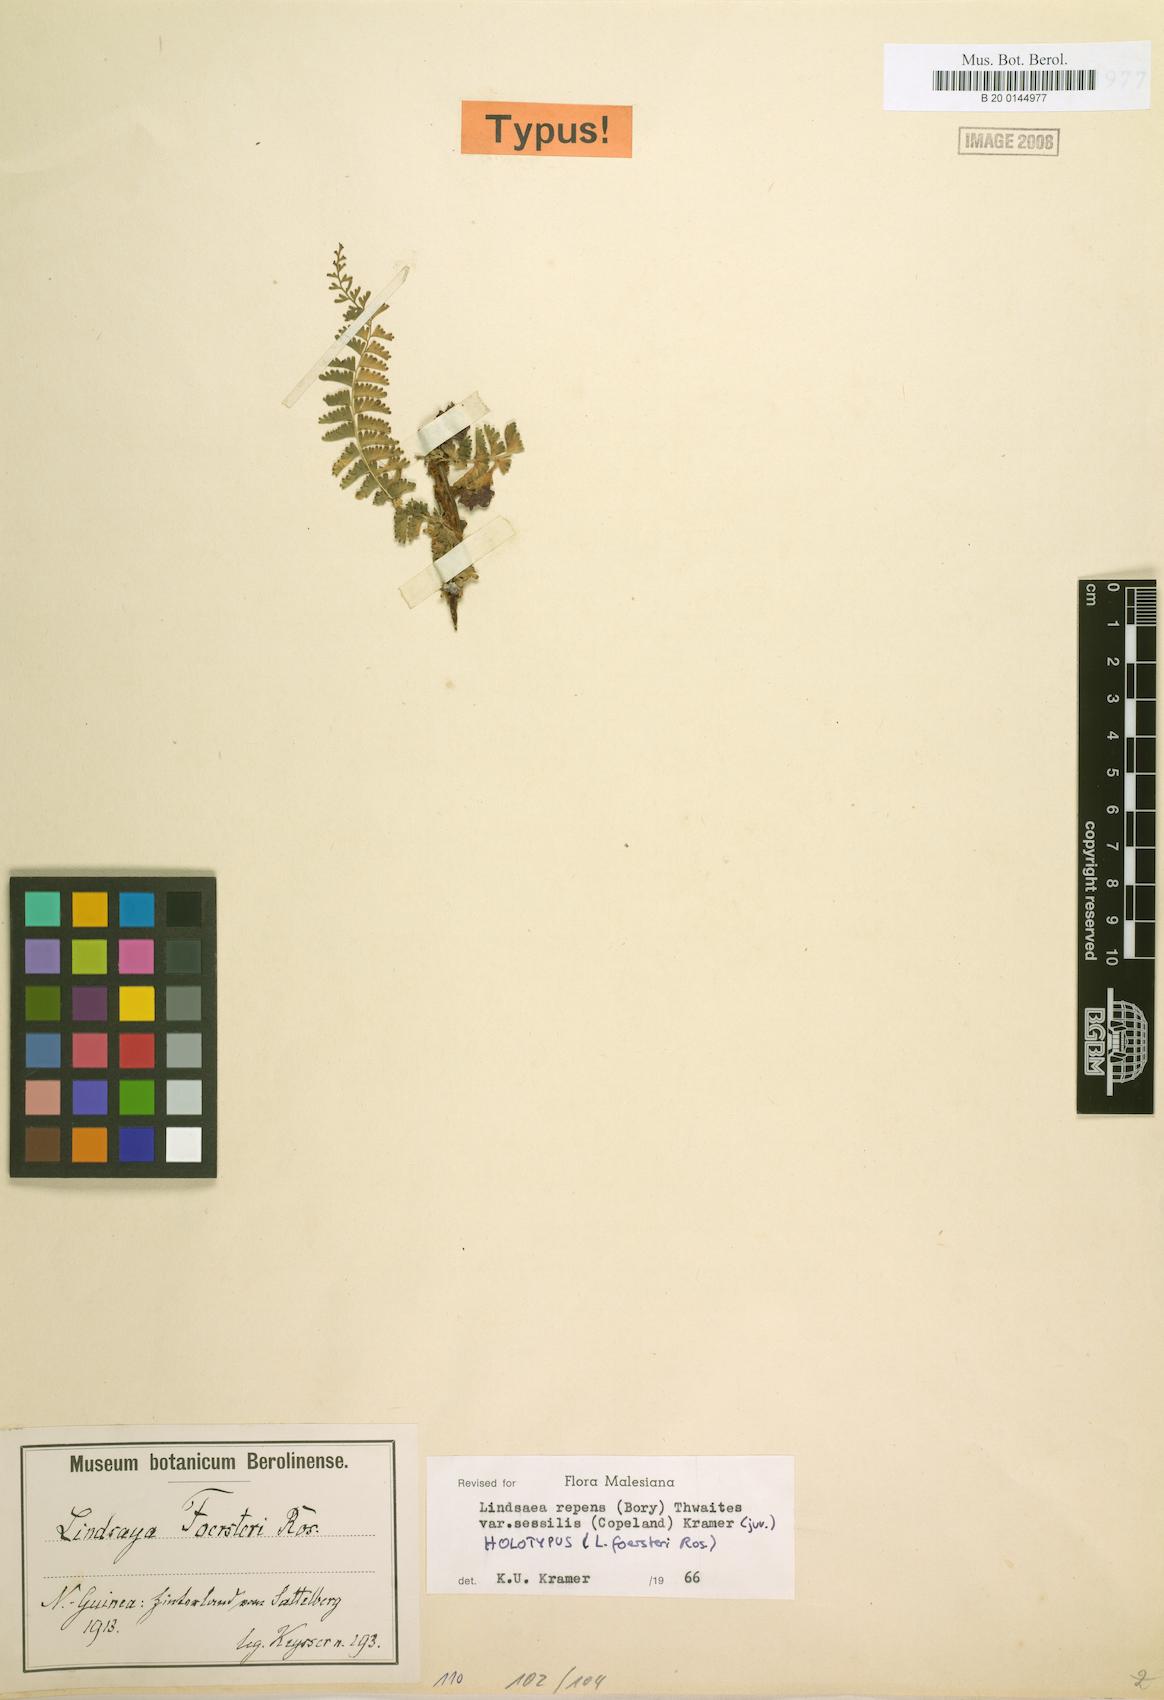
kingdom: Plantae
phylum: Tracheophyta
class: Polypodiopsida
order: Polypodiales
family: Lindsaeaceae
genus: Lindsaea
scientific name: Lindsaea sessilis
